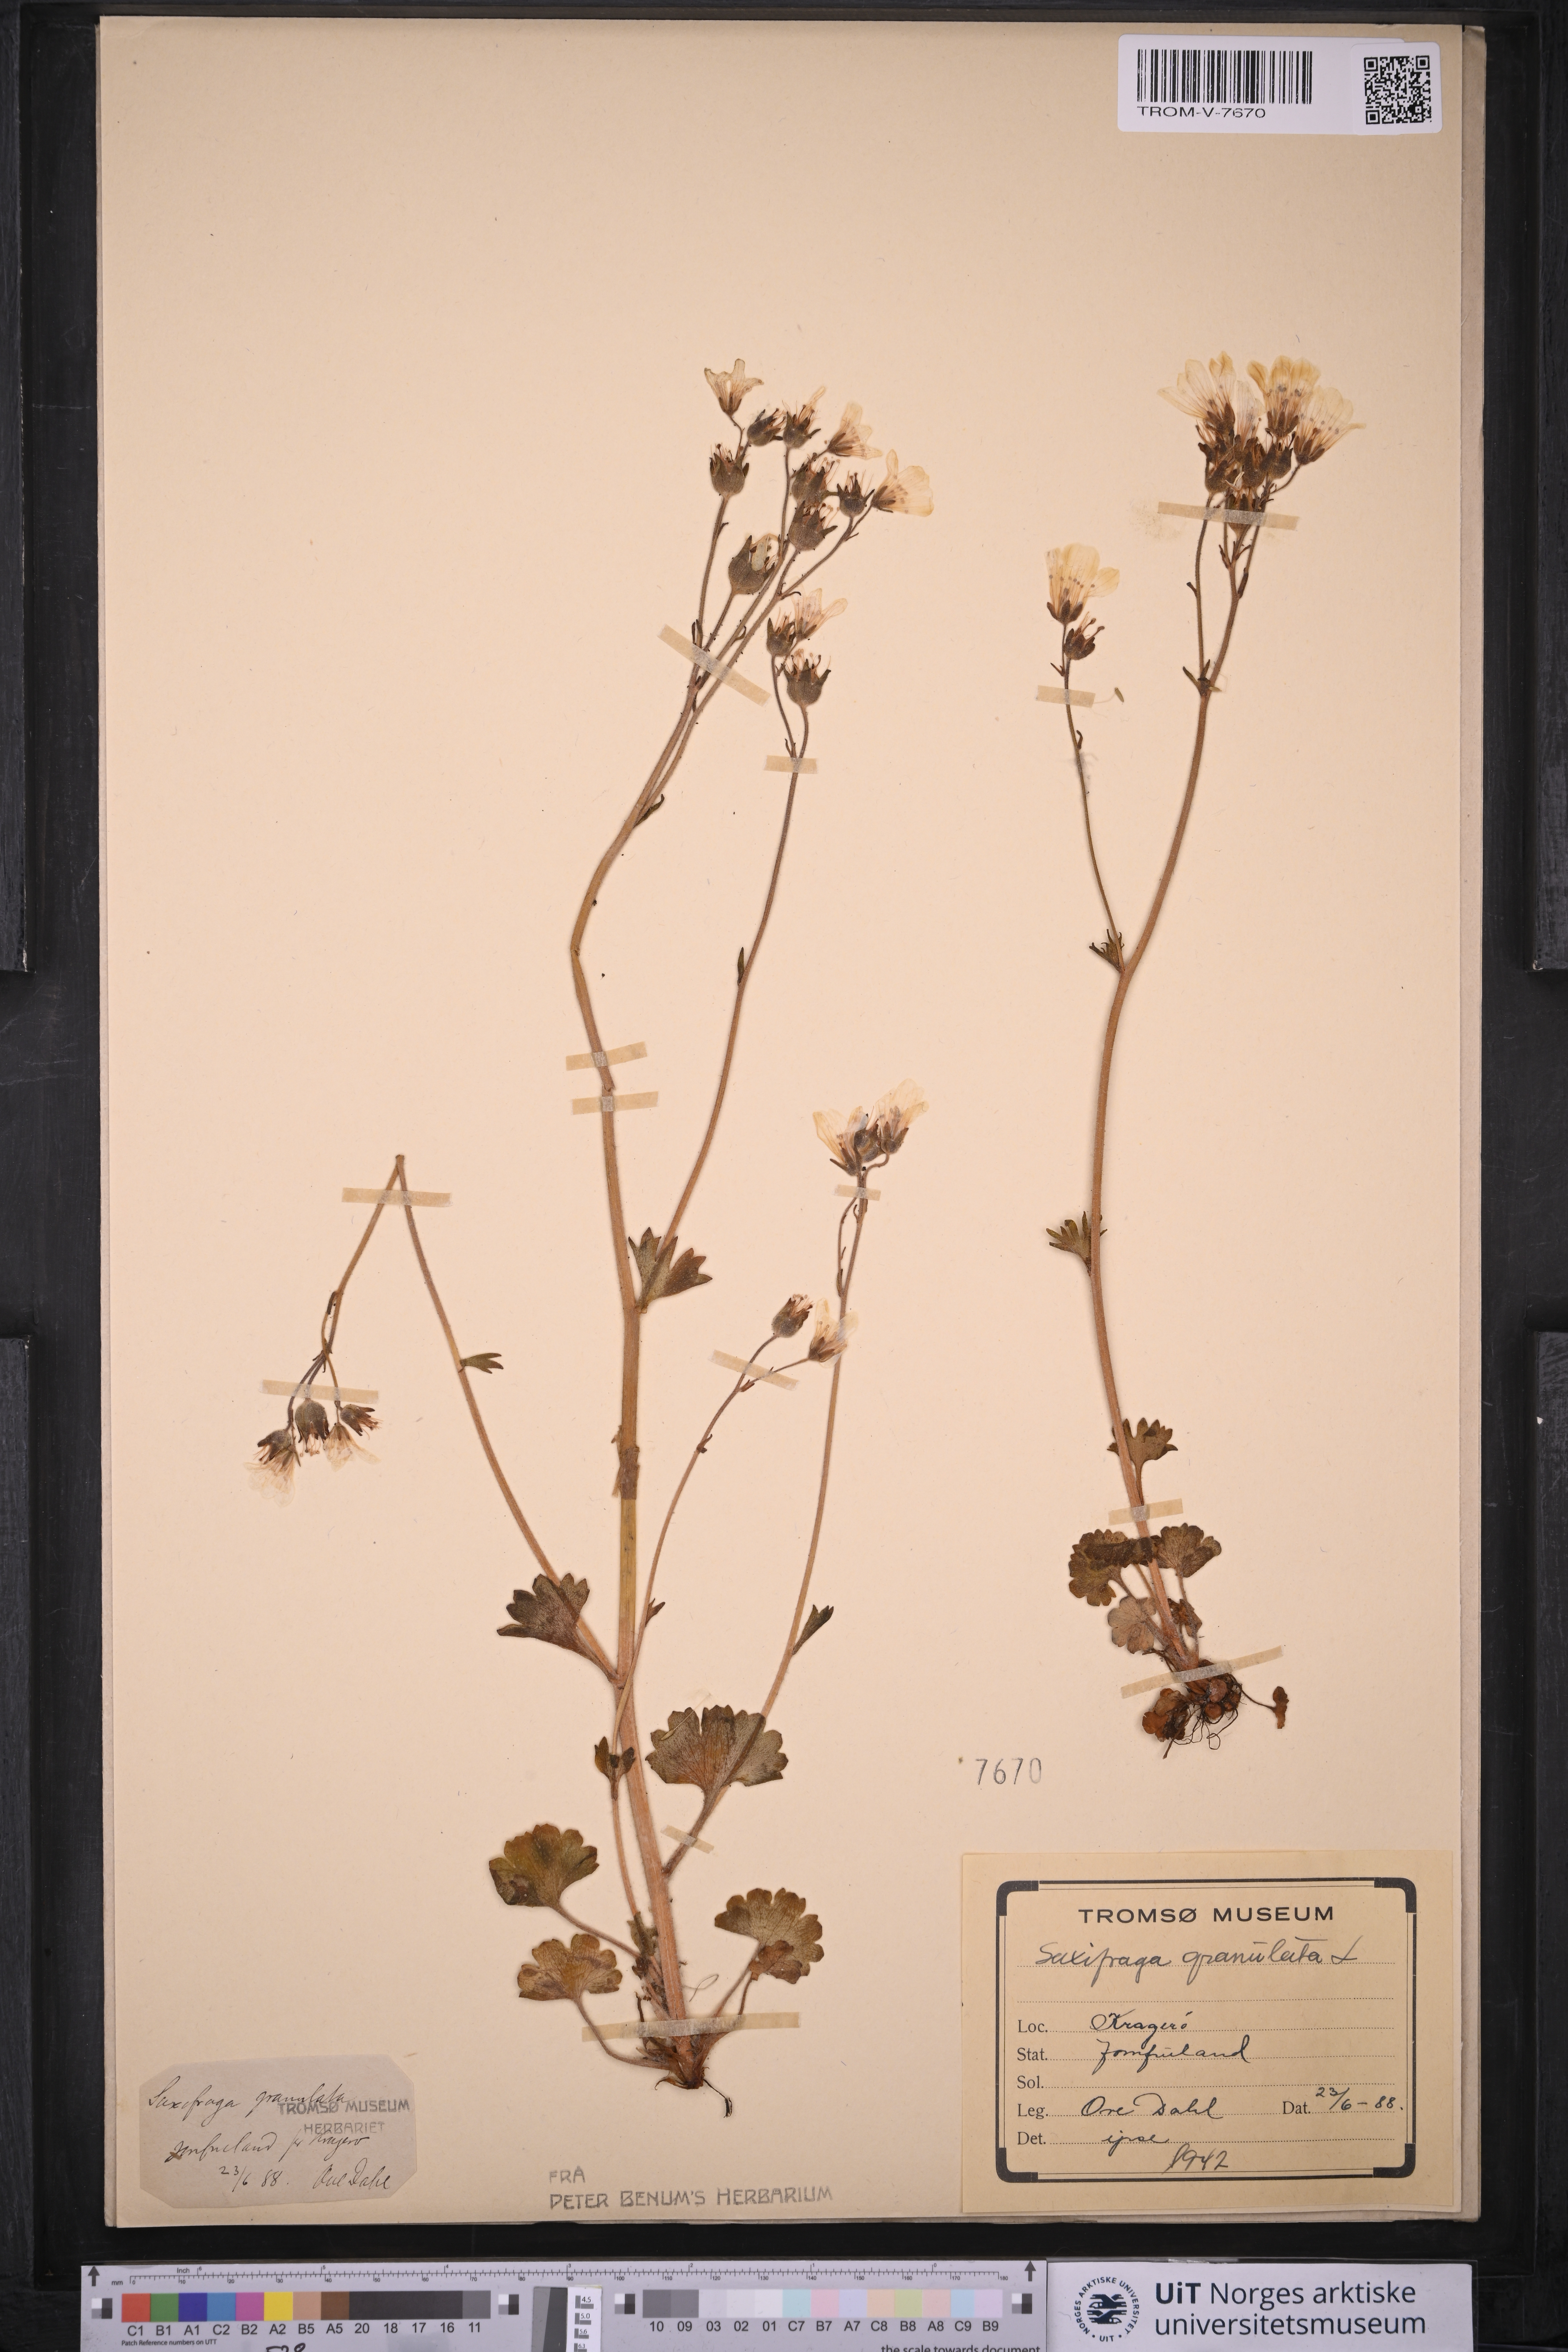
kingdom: Plantae
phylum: Tracheophyta
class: Magnoliopsida
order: Saxifragales
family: Saxifragaceae
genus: Saxifraga
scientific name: Saxifraga granulata
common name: Meadow saxifrage
